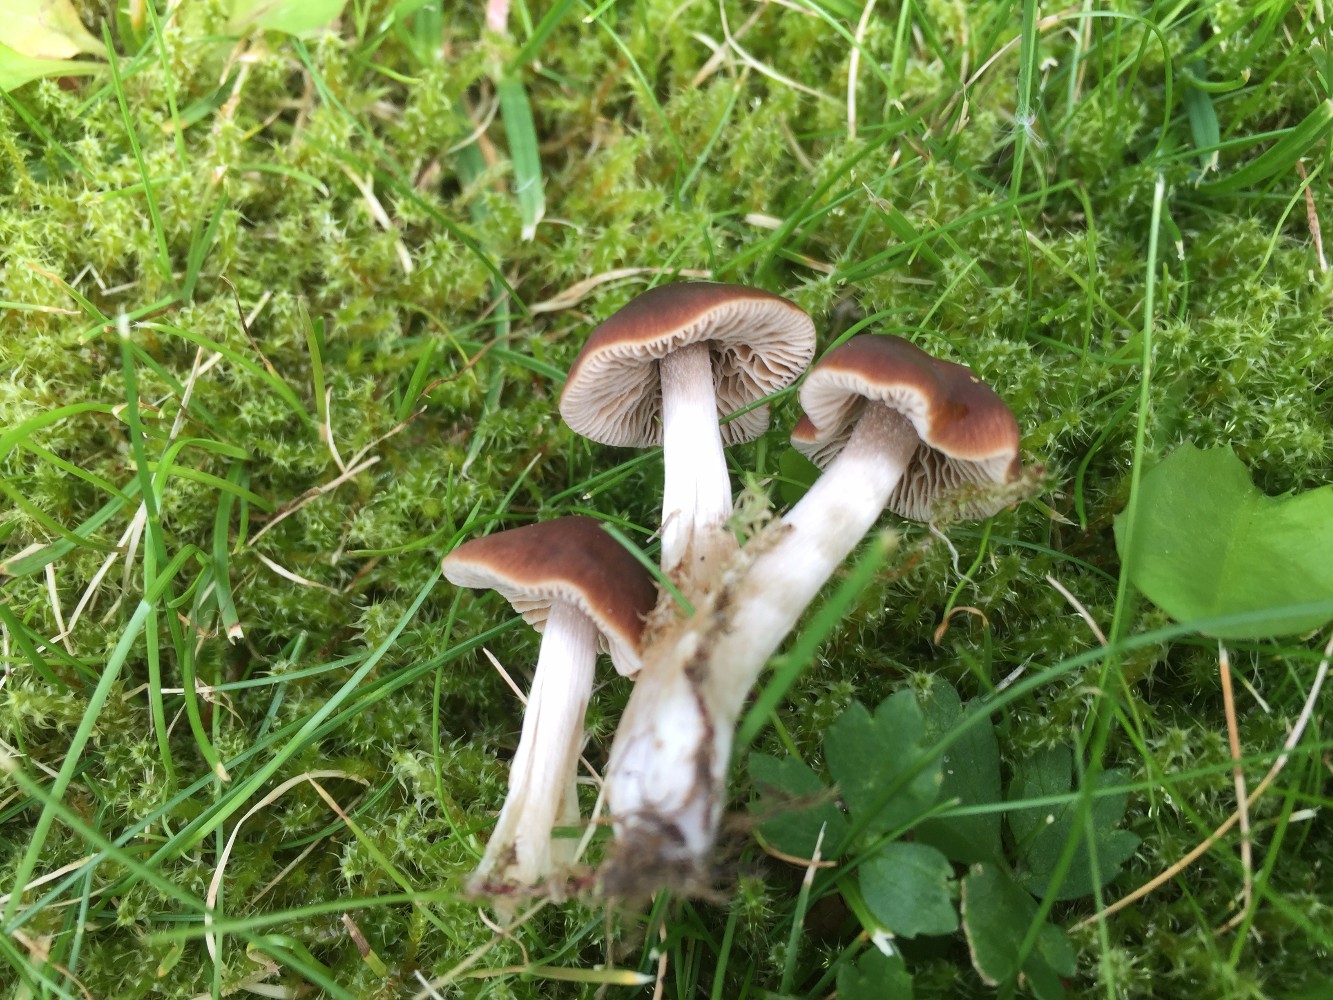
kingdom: Fungi
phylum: Basidiomycota
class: Agaricomycetes
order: Agaricales
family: Hymenogastraceae
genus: Naucoria
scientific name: Naucoria bohemica
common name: birke-knaphat
